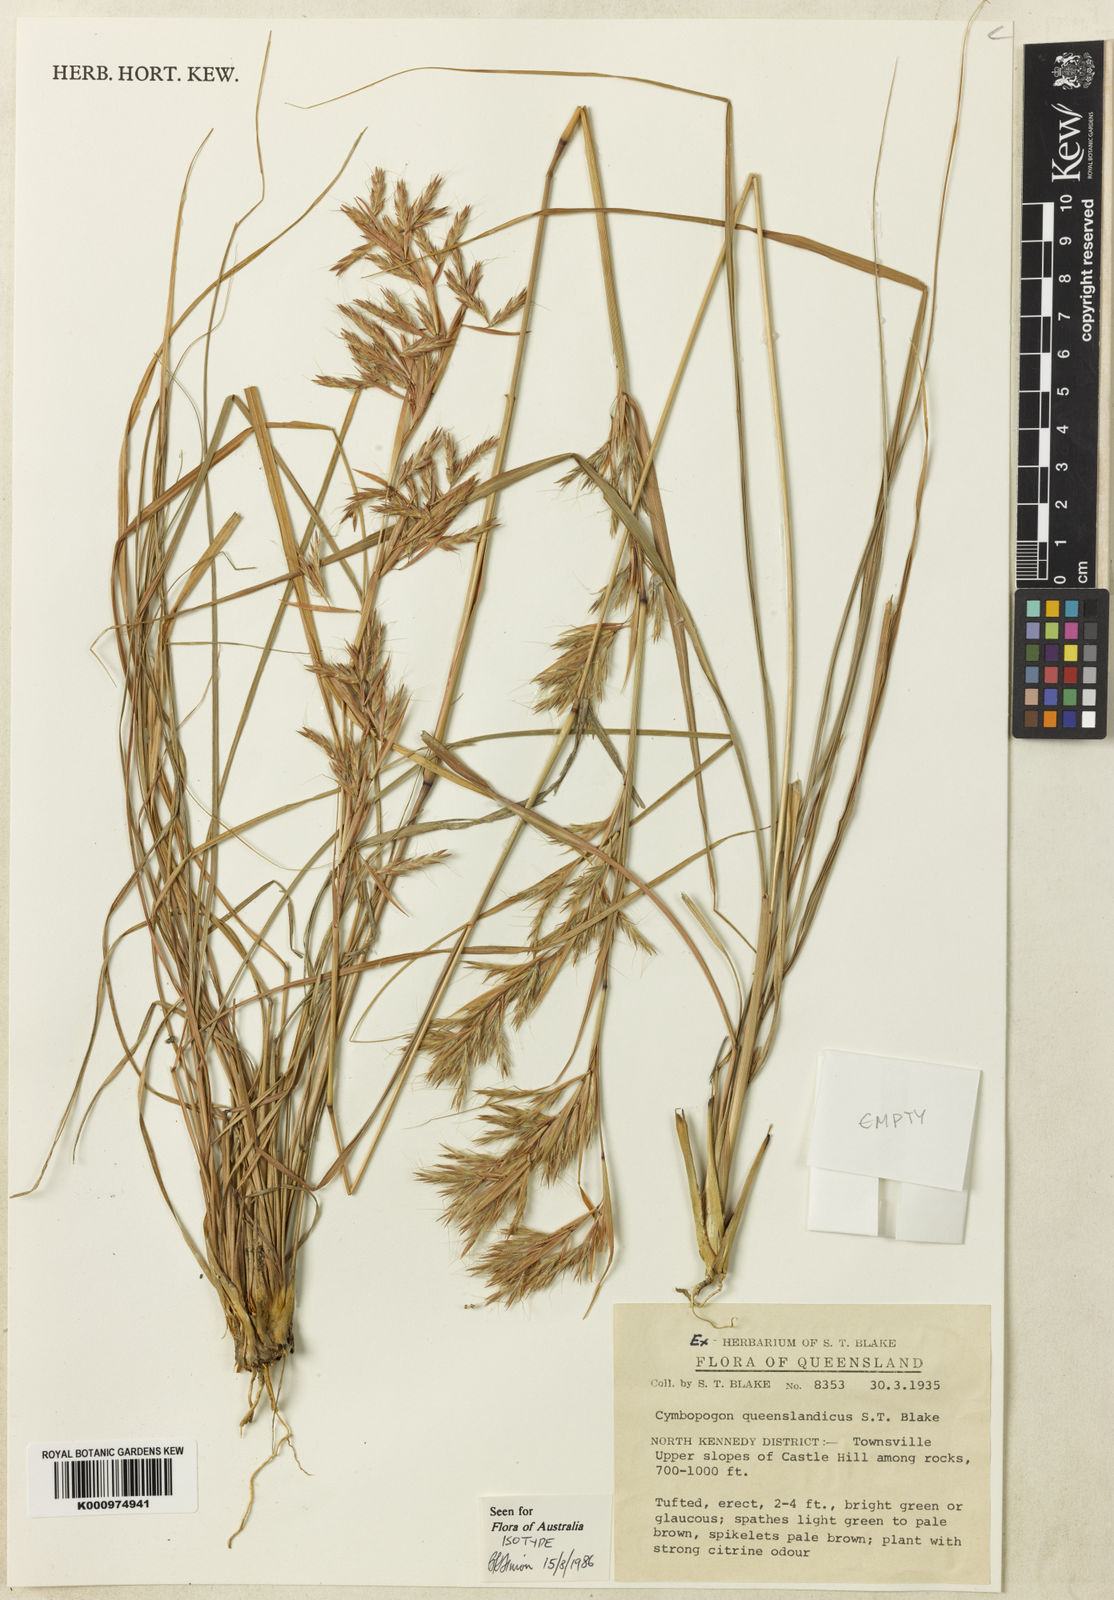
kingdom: Plantae
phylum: Tracheophyta
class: Liliopsida
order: Poales
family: Poaceae
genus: Cymbopogon
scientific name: Cymbopogon queenslandicus
